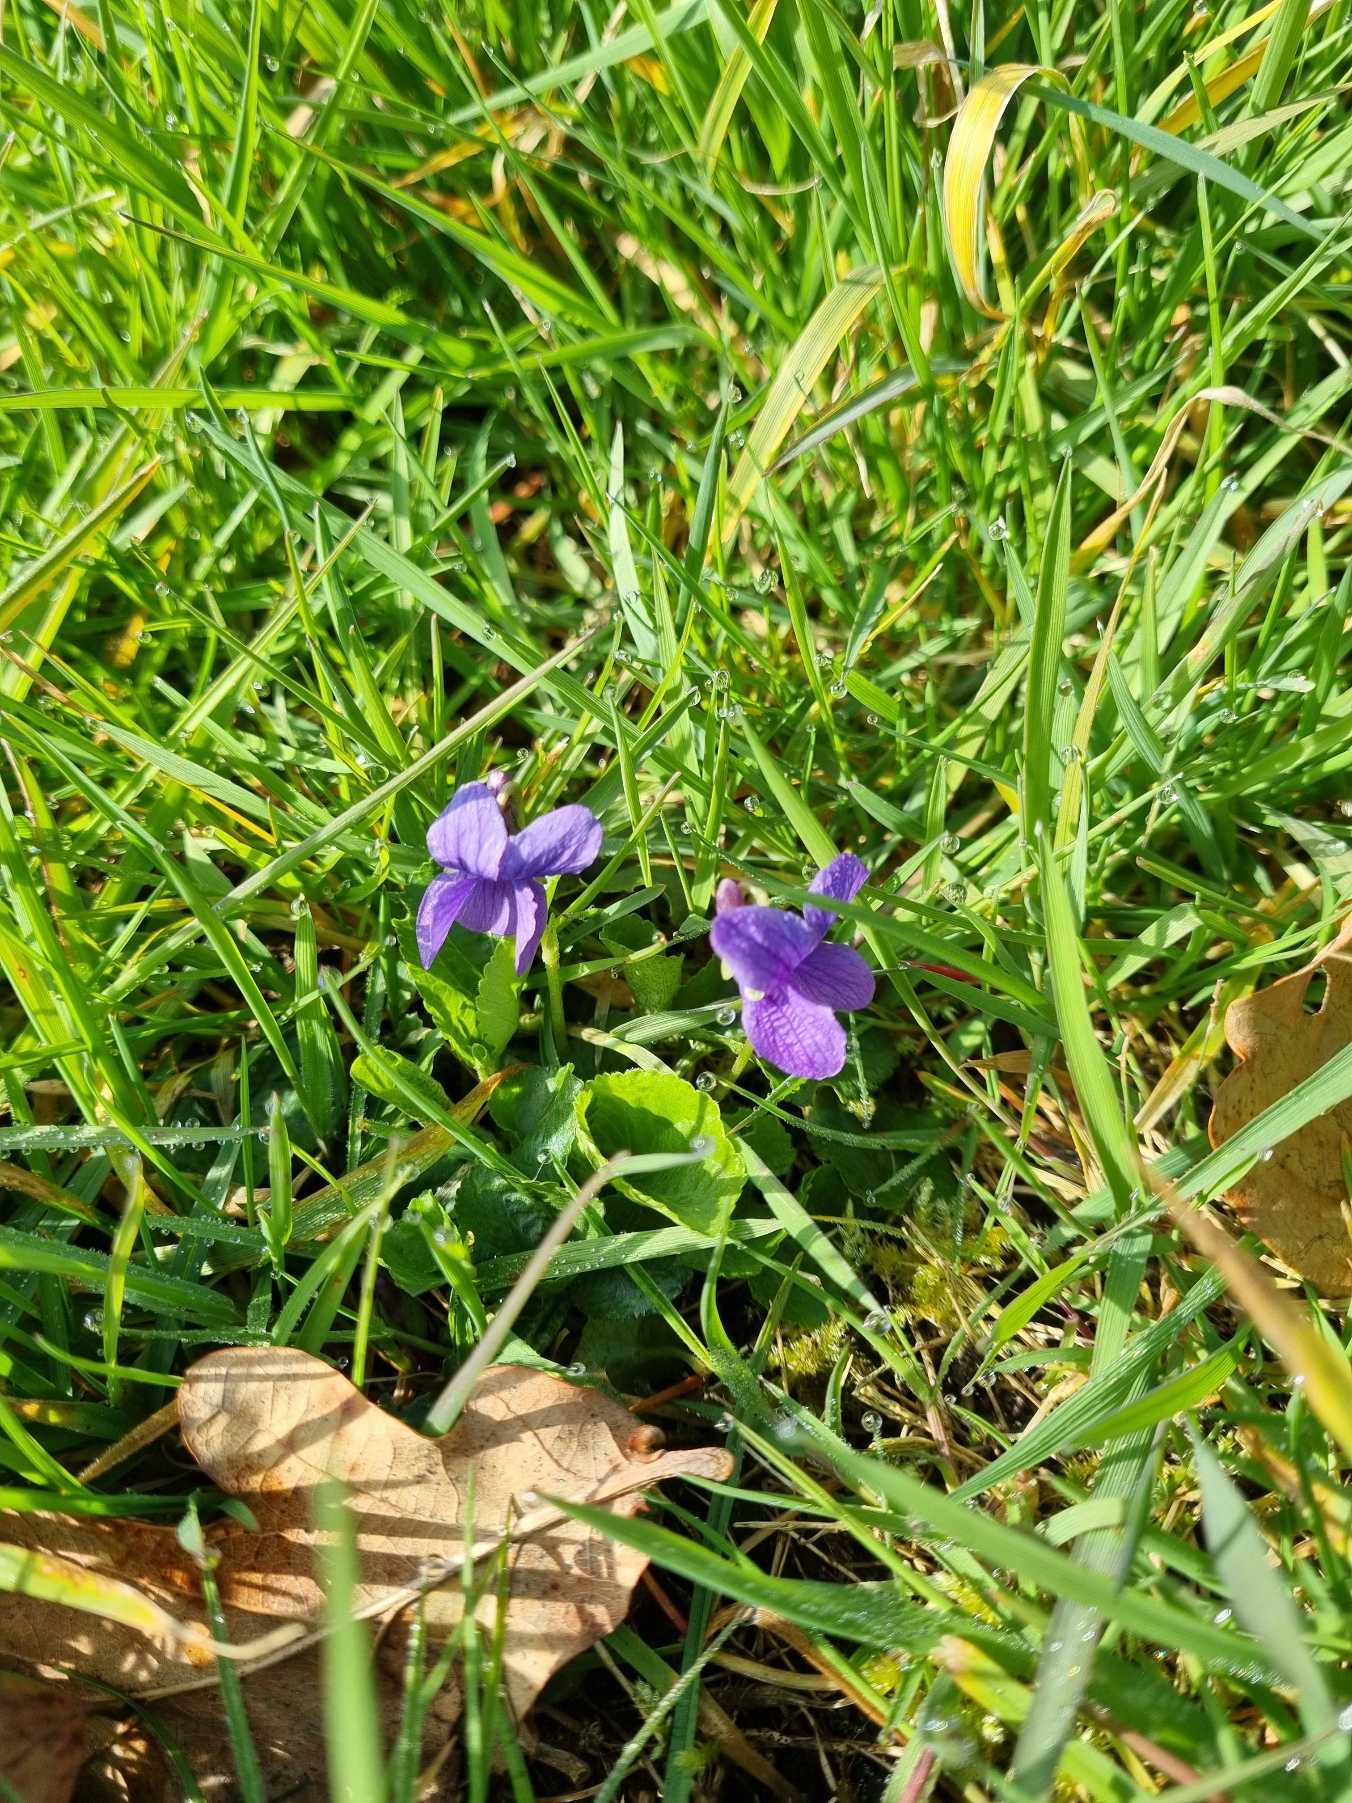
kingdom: Plantae
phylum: Tracheophyta
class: Magnoliopsida
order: Malpighiales
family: Violaceae
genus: Viola
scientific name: Viola odorata
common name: Marts-viol
